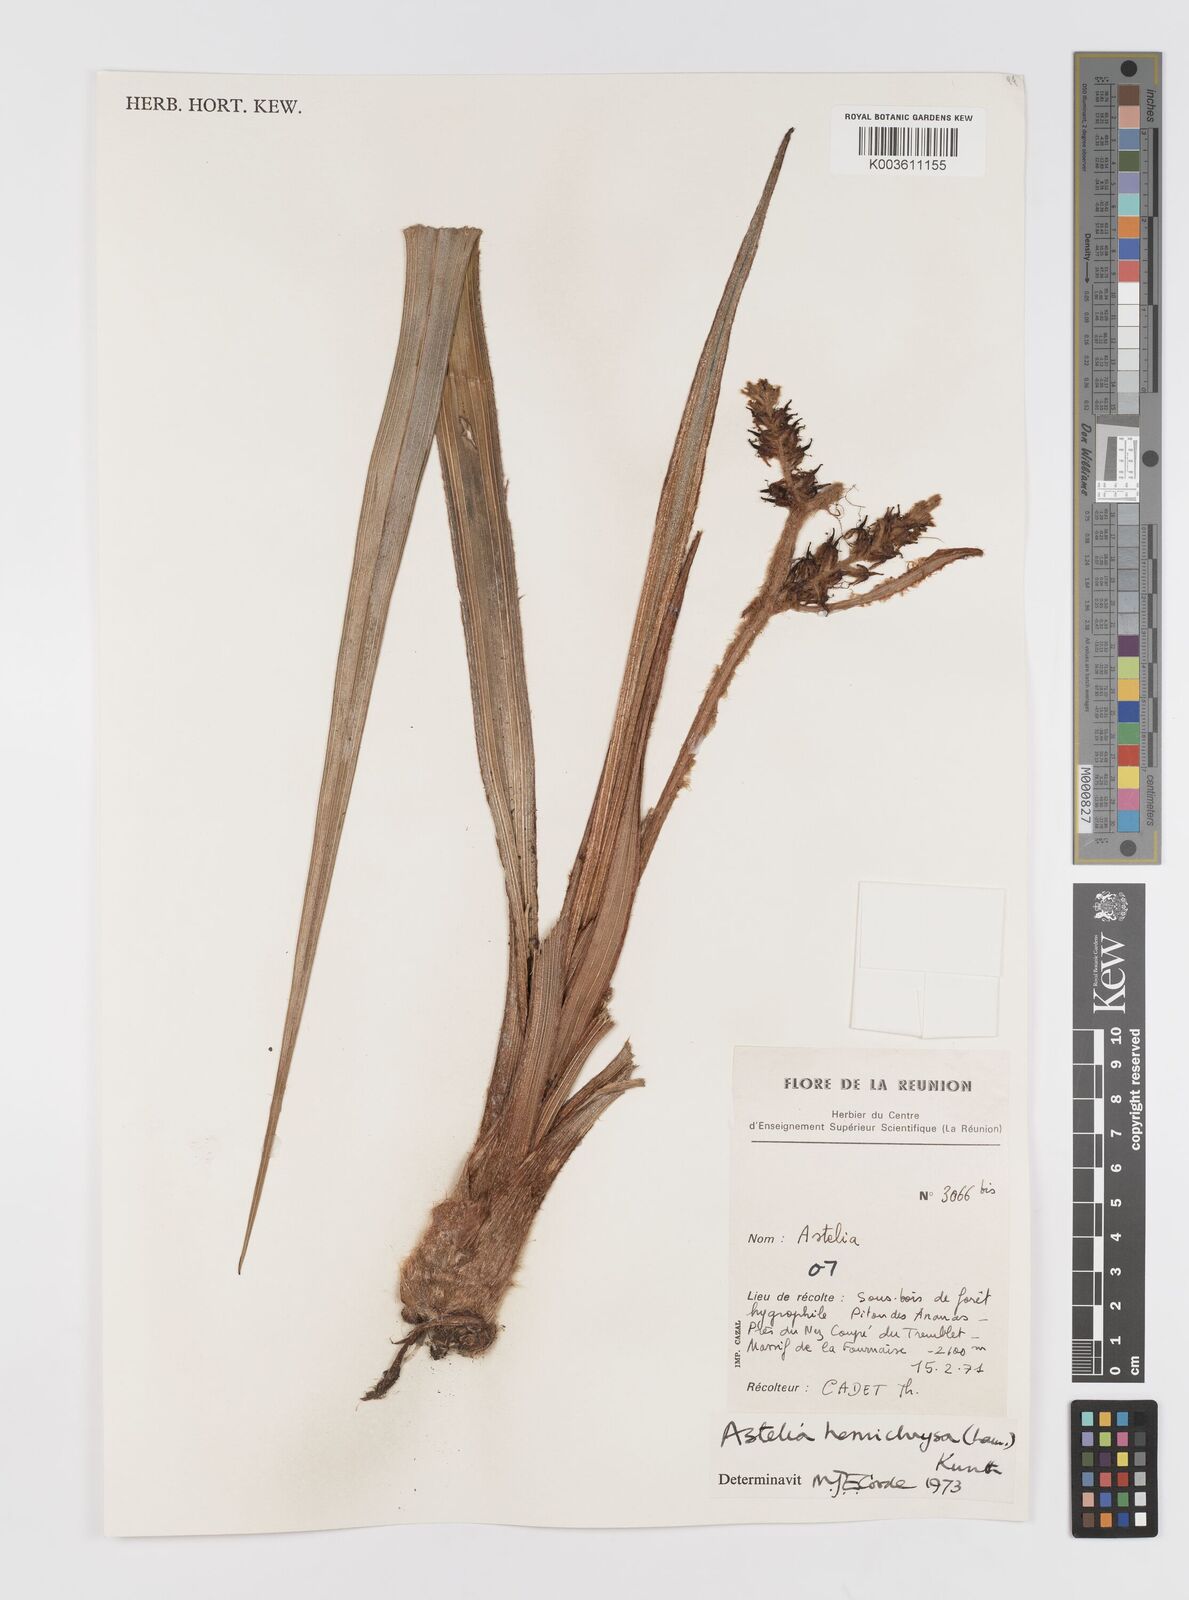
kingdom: Plantae
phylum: Tracheophyta
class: Liliopsida
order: Asparagales
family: Asteliaceae
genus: Astelia
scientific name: Astelia hemichrysa
